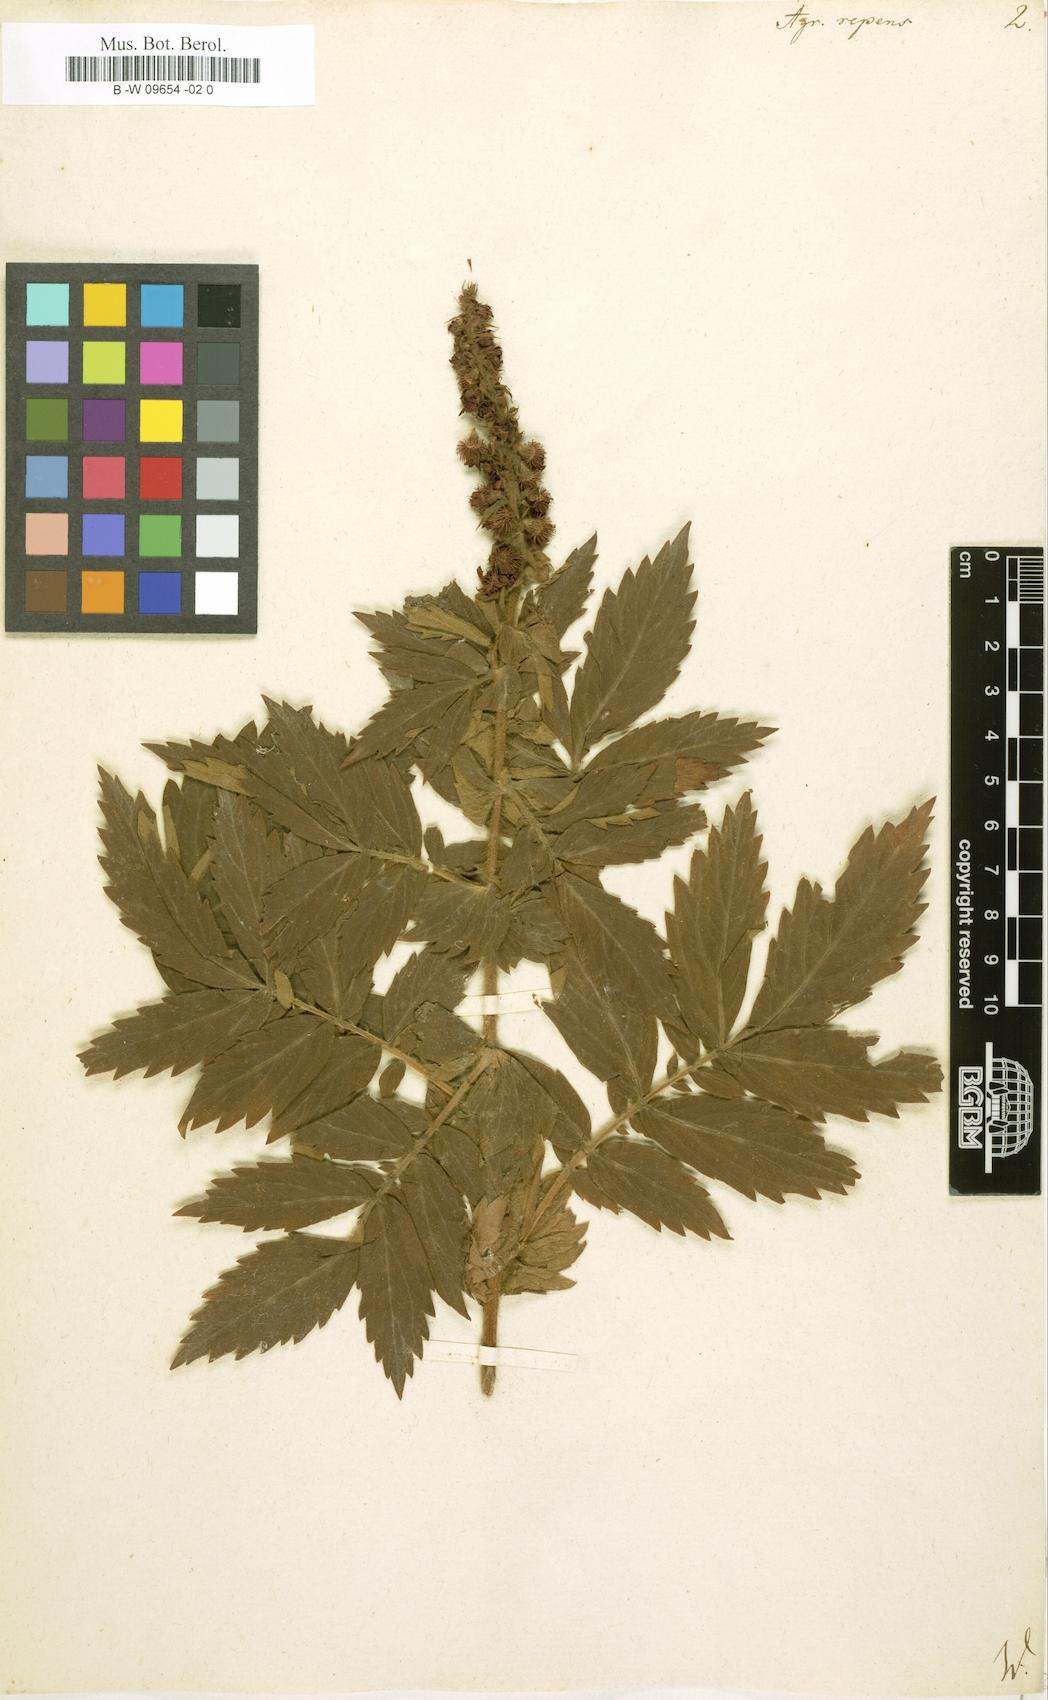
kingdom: Plantae
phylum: Tracheophyta
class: Magnoliopsida
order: Rosales
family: Rosaceae
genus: Agrimonia
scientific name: Agrimonia repens
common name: Creeping agrimony
